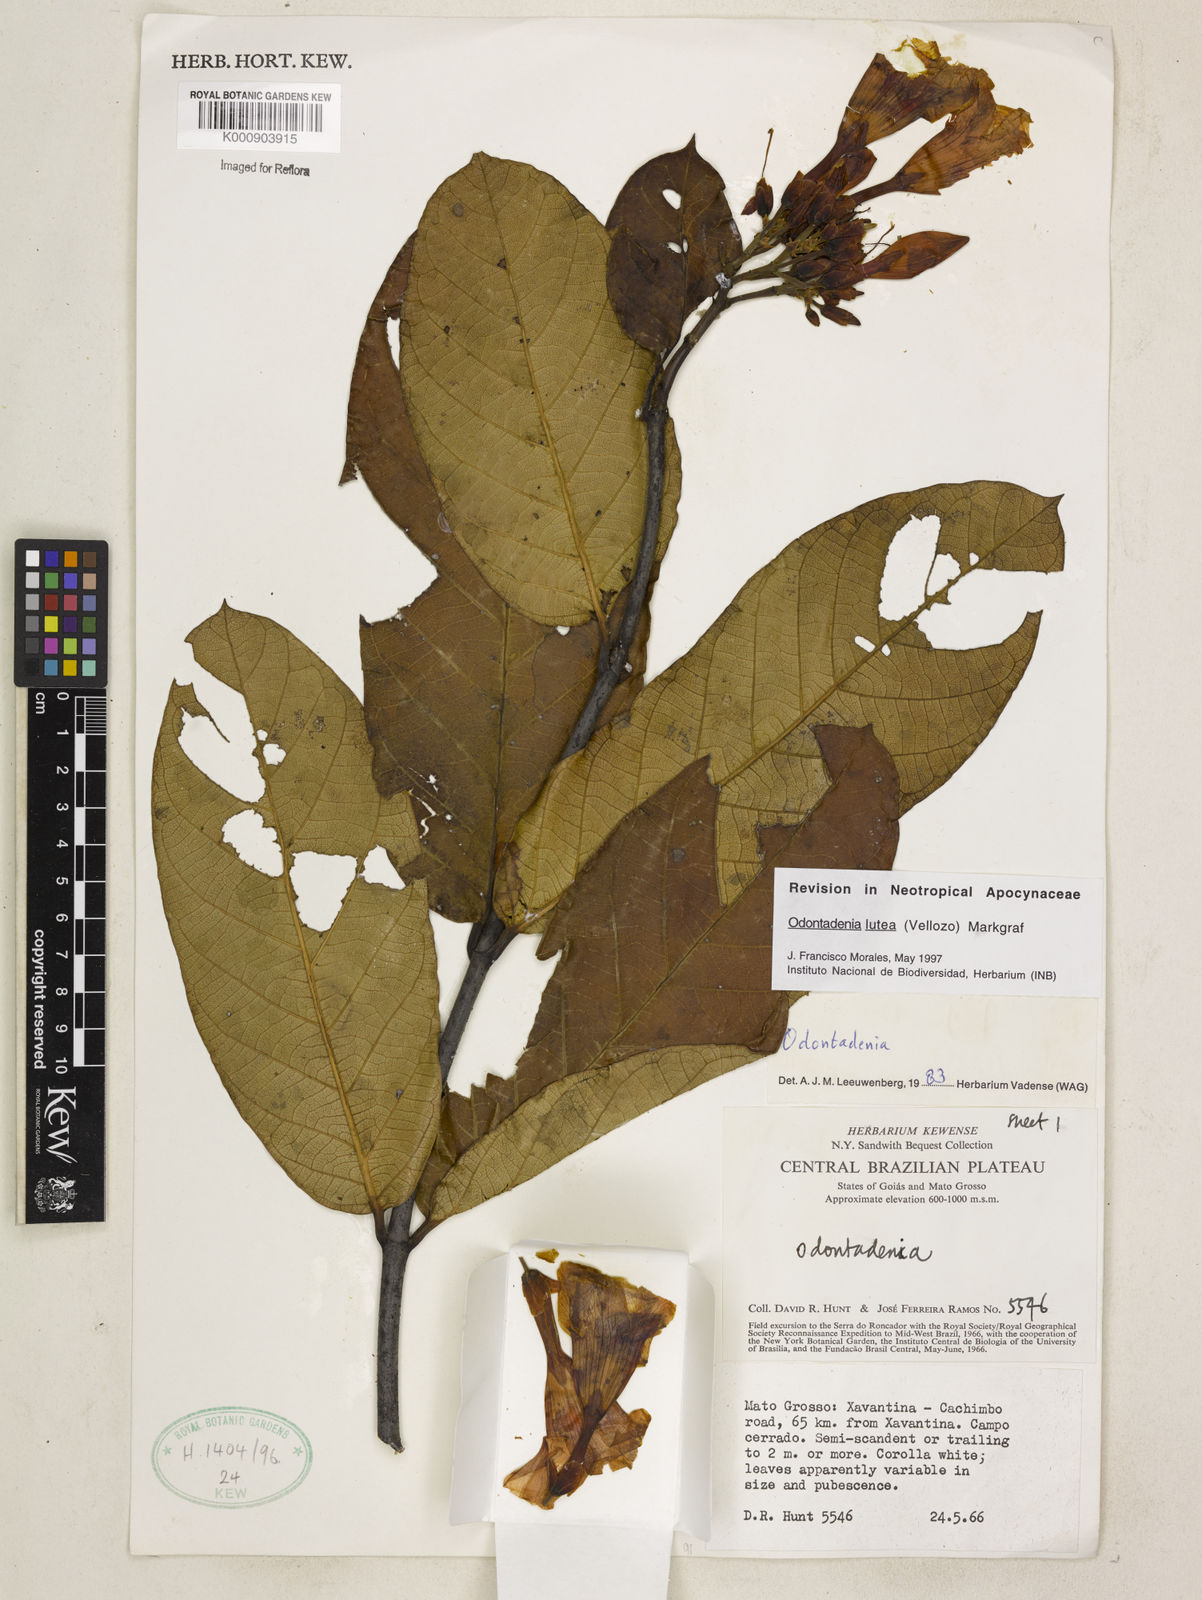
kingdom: Plantae
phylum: Tracheophyta
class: Magnoliopsida
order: Gentianales
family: Apocynaceae
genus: Odontadenia
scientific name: Odontadenia lutea
